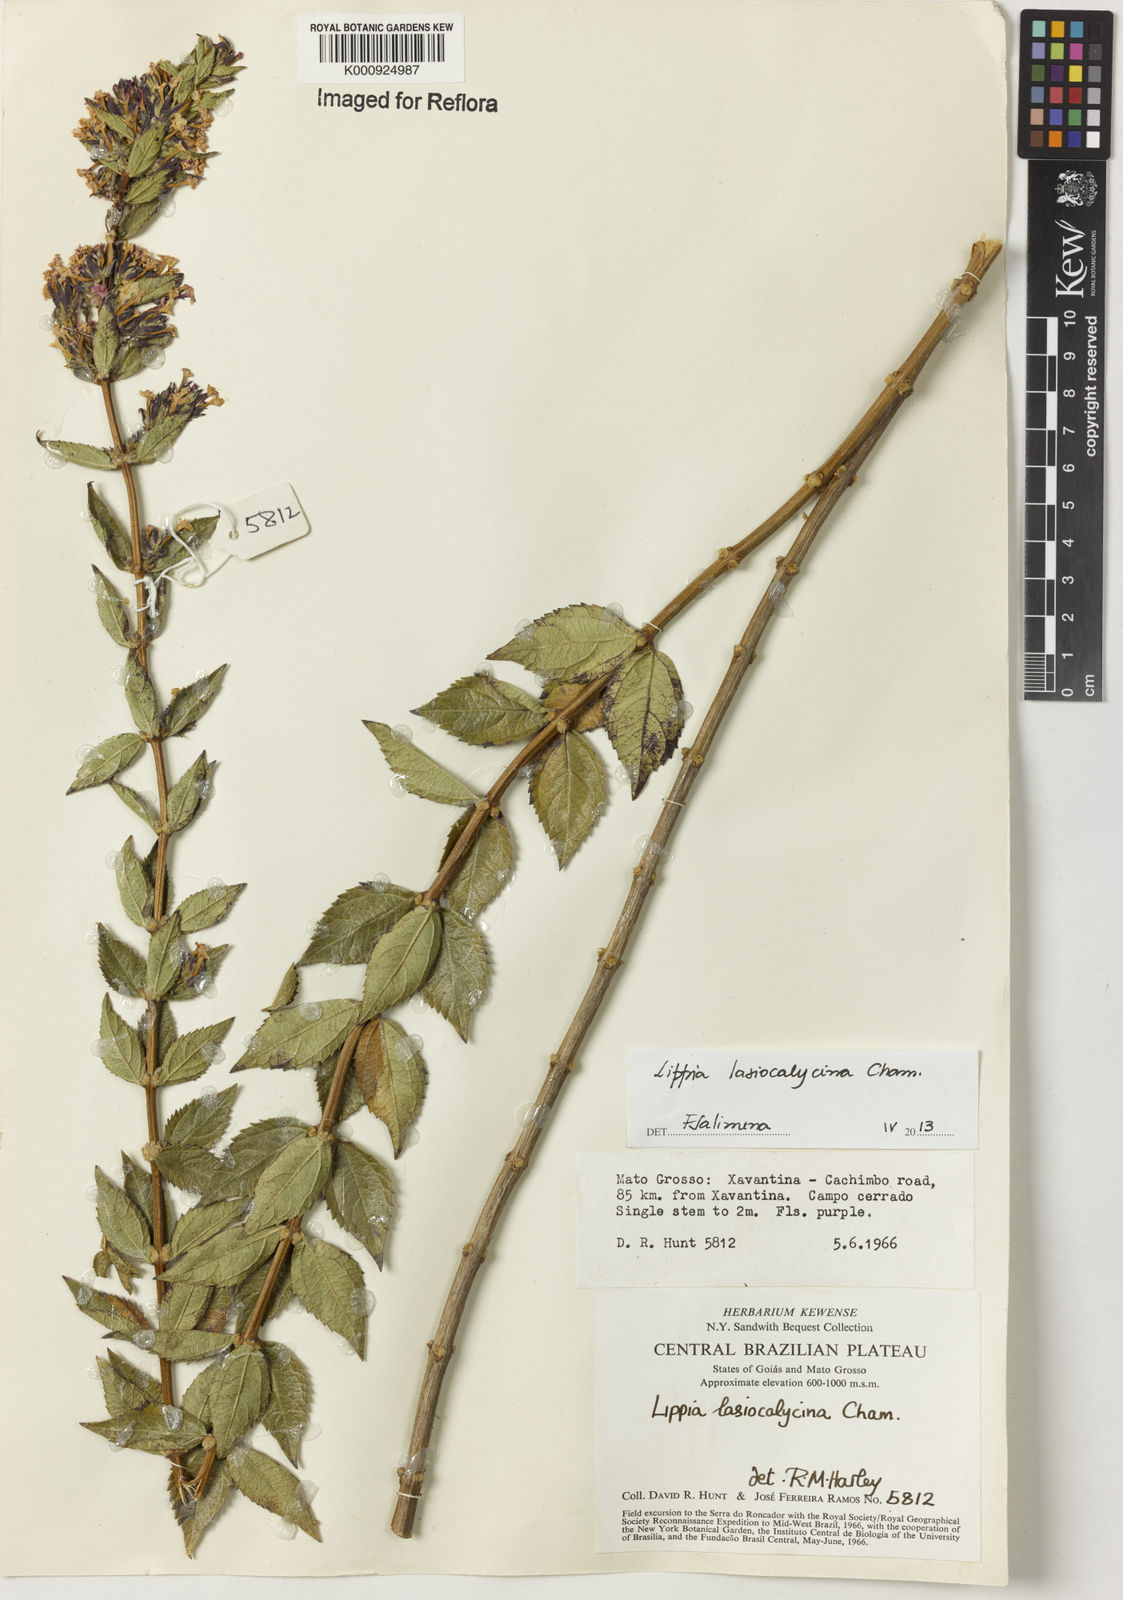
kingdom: Plantae
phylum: Tracheophyta
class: Magnoliopsida
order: Lamiales
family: Verbenaceae
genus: Lippia
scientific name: Lippia lasiocalycina
